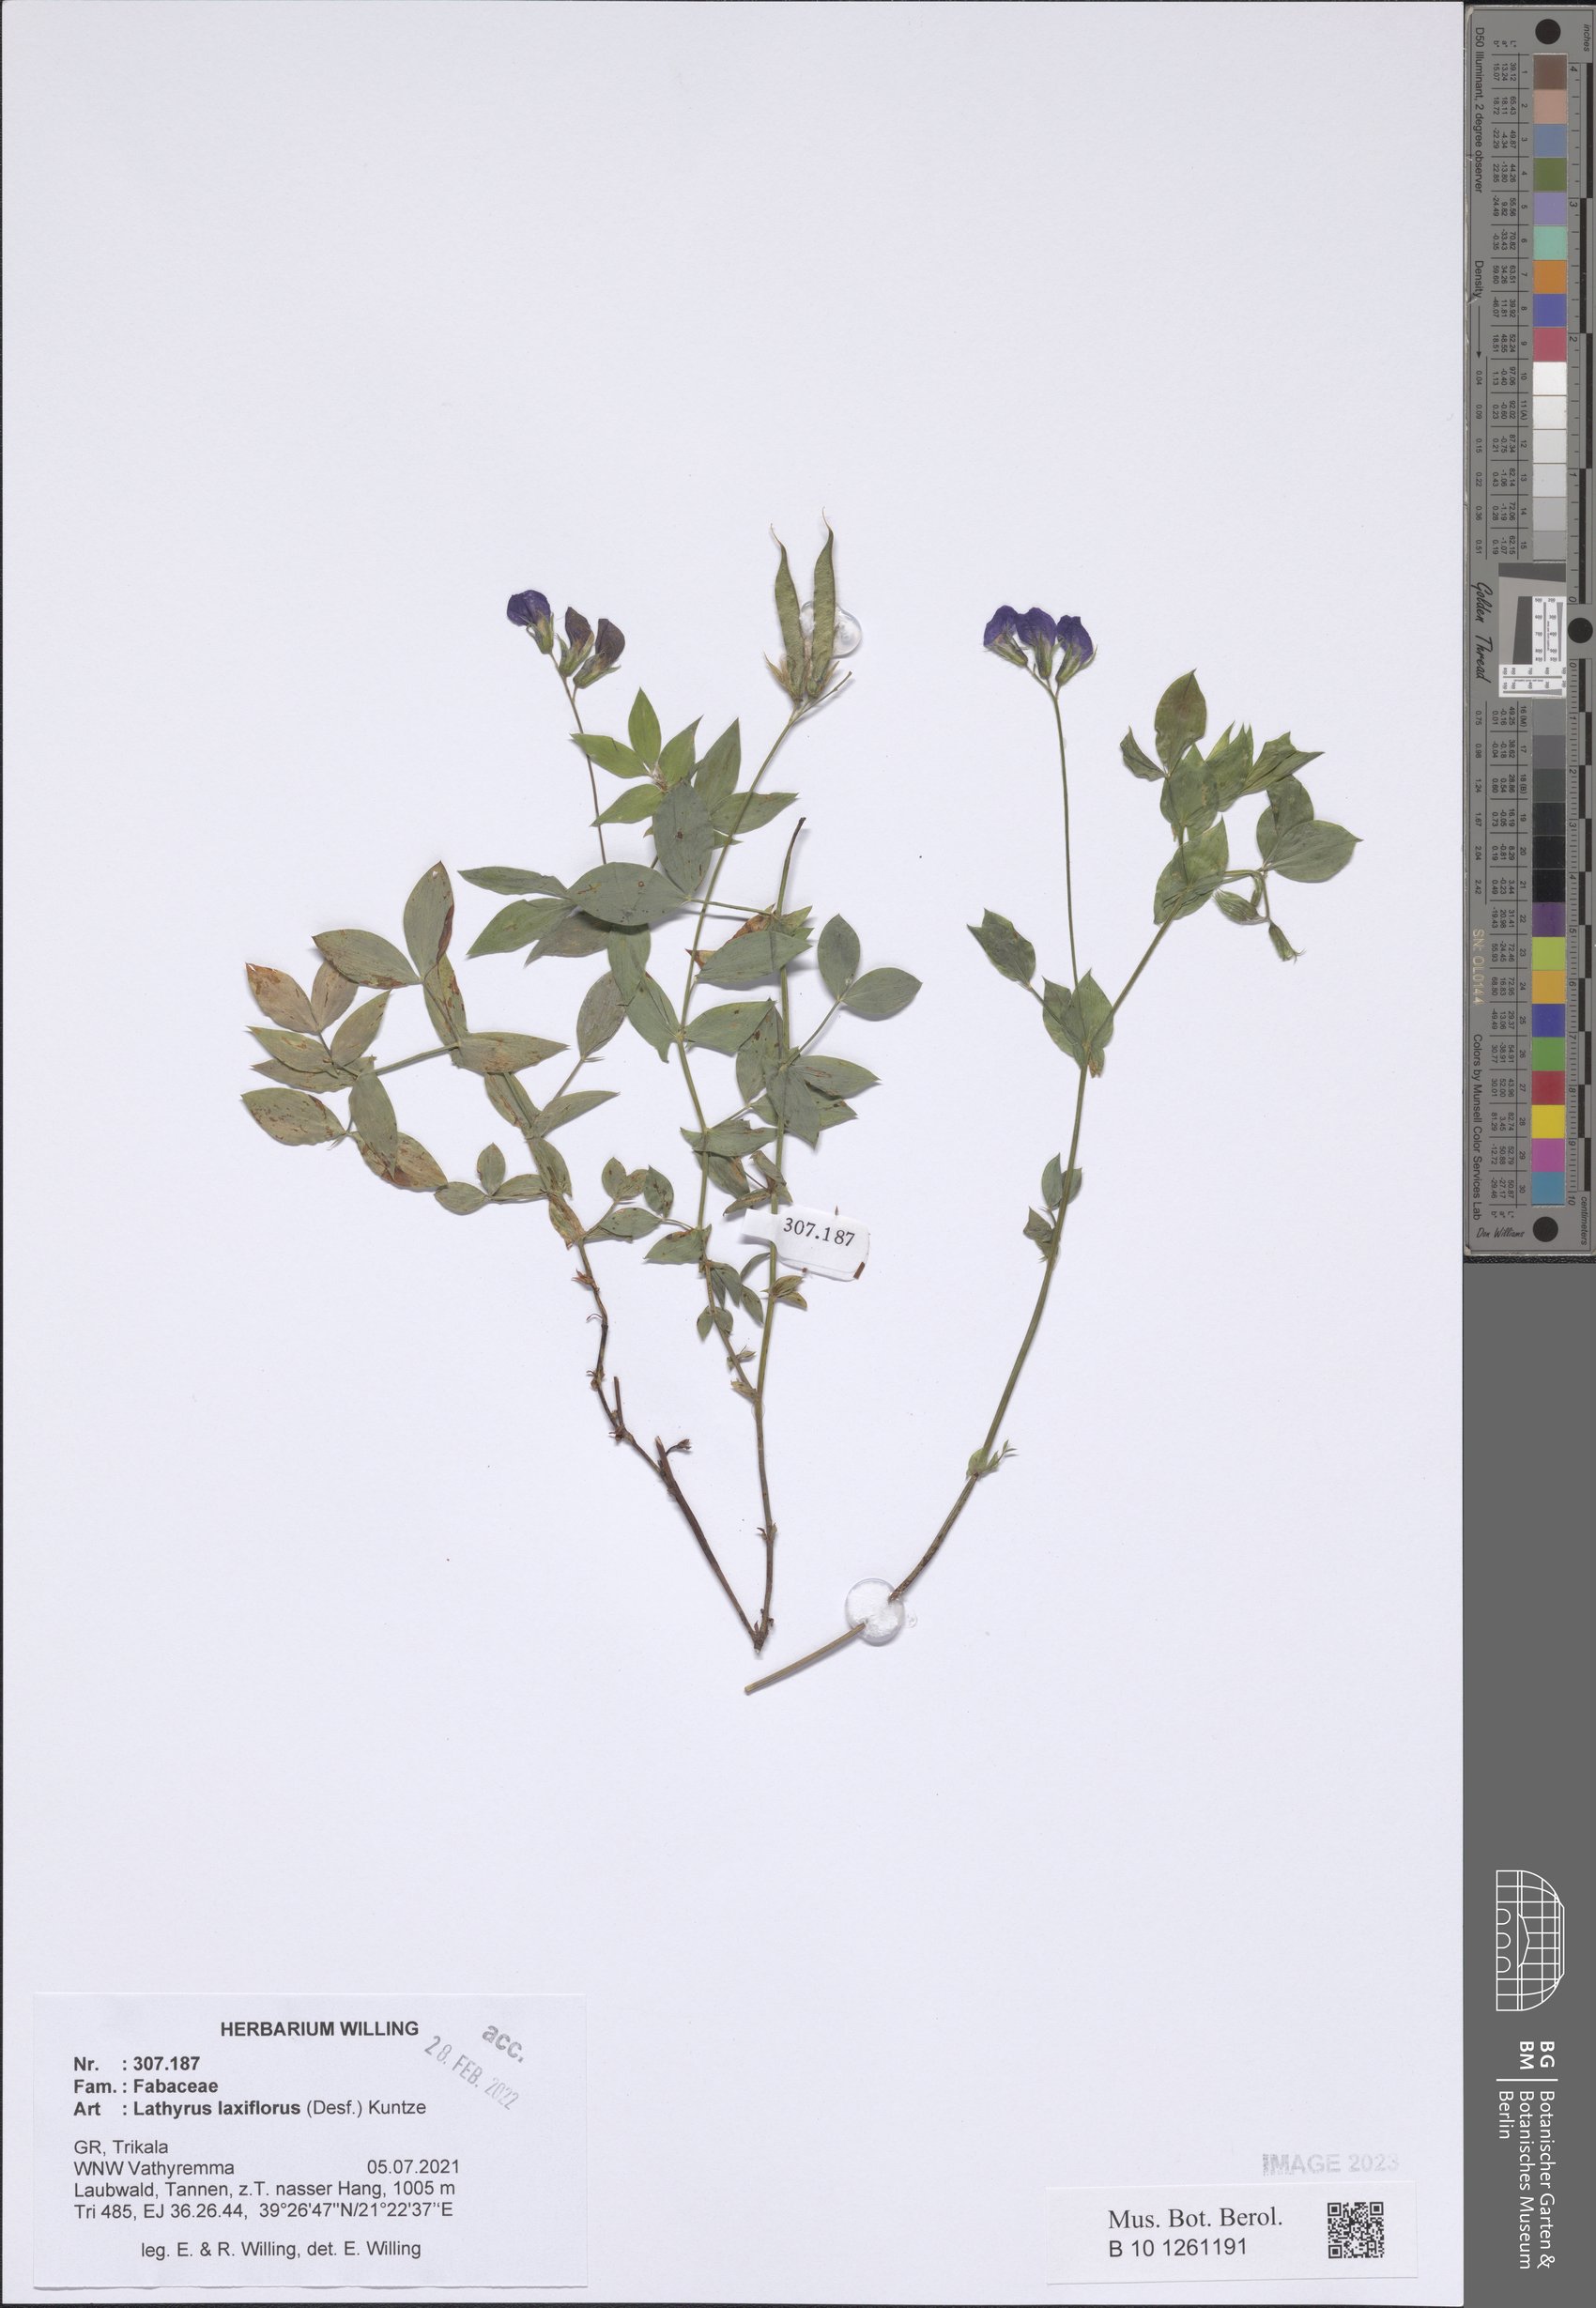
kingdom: Plantae
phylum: Tracheophyta
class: Magnoliopsida
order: Fabales
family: Fabaceae
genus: Lathyrus
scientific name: Lathyrus laxiflorus
